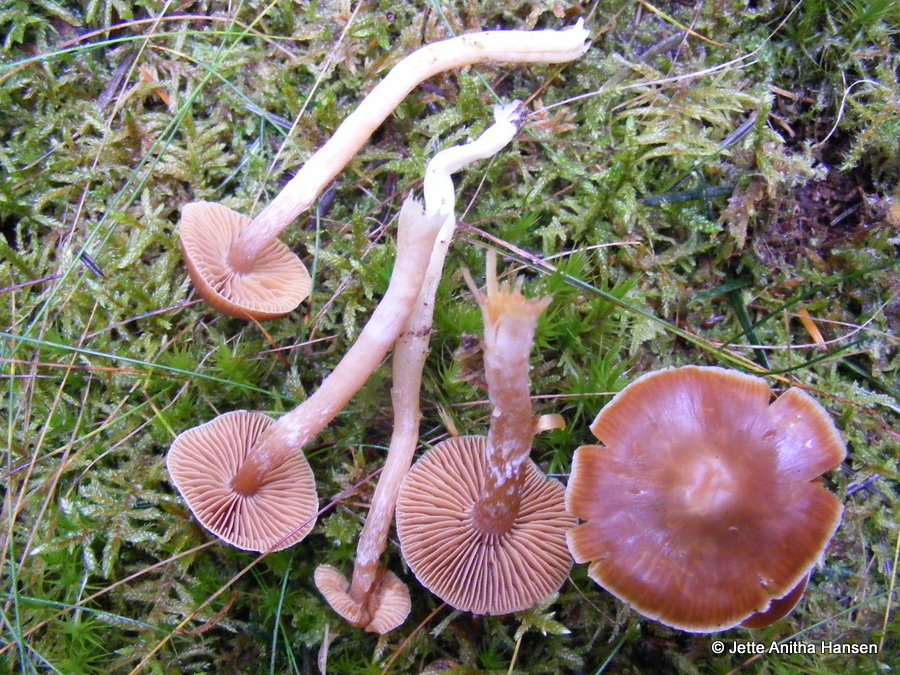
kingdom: Fungi
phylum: Basidiomycota
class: Agaricomycetes
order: Agaricales
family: Cortinariaceae
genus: Cortinarius
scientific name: Cortinarius
